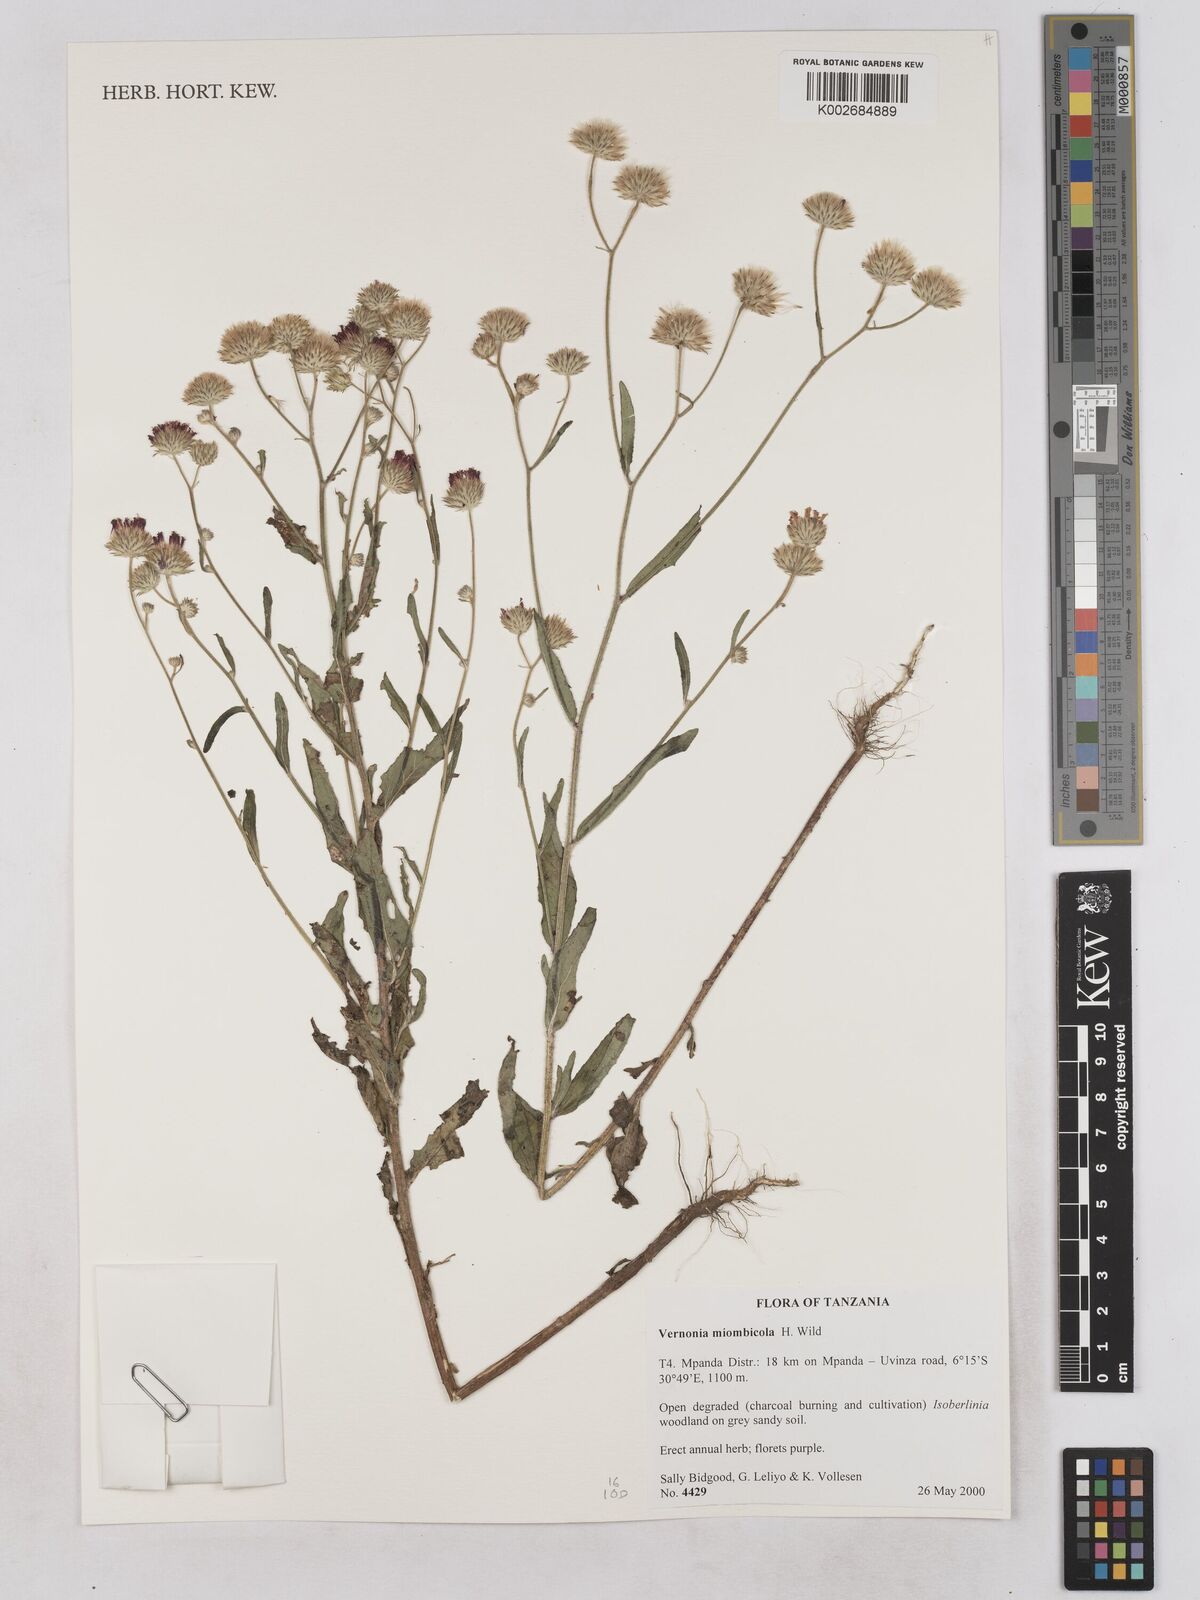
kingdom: Plantae
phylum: Tracheophyta
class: Magnoliopsida
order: Asterales
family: Asteraceae
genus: Vernonia
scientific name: Vernonia miombicola
